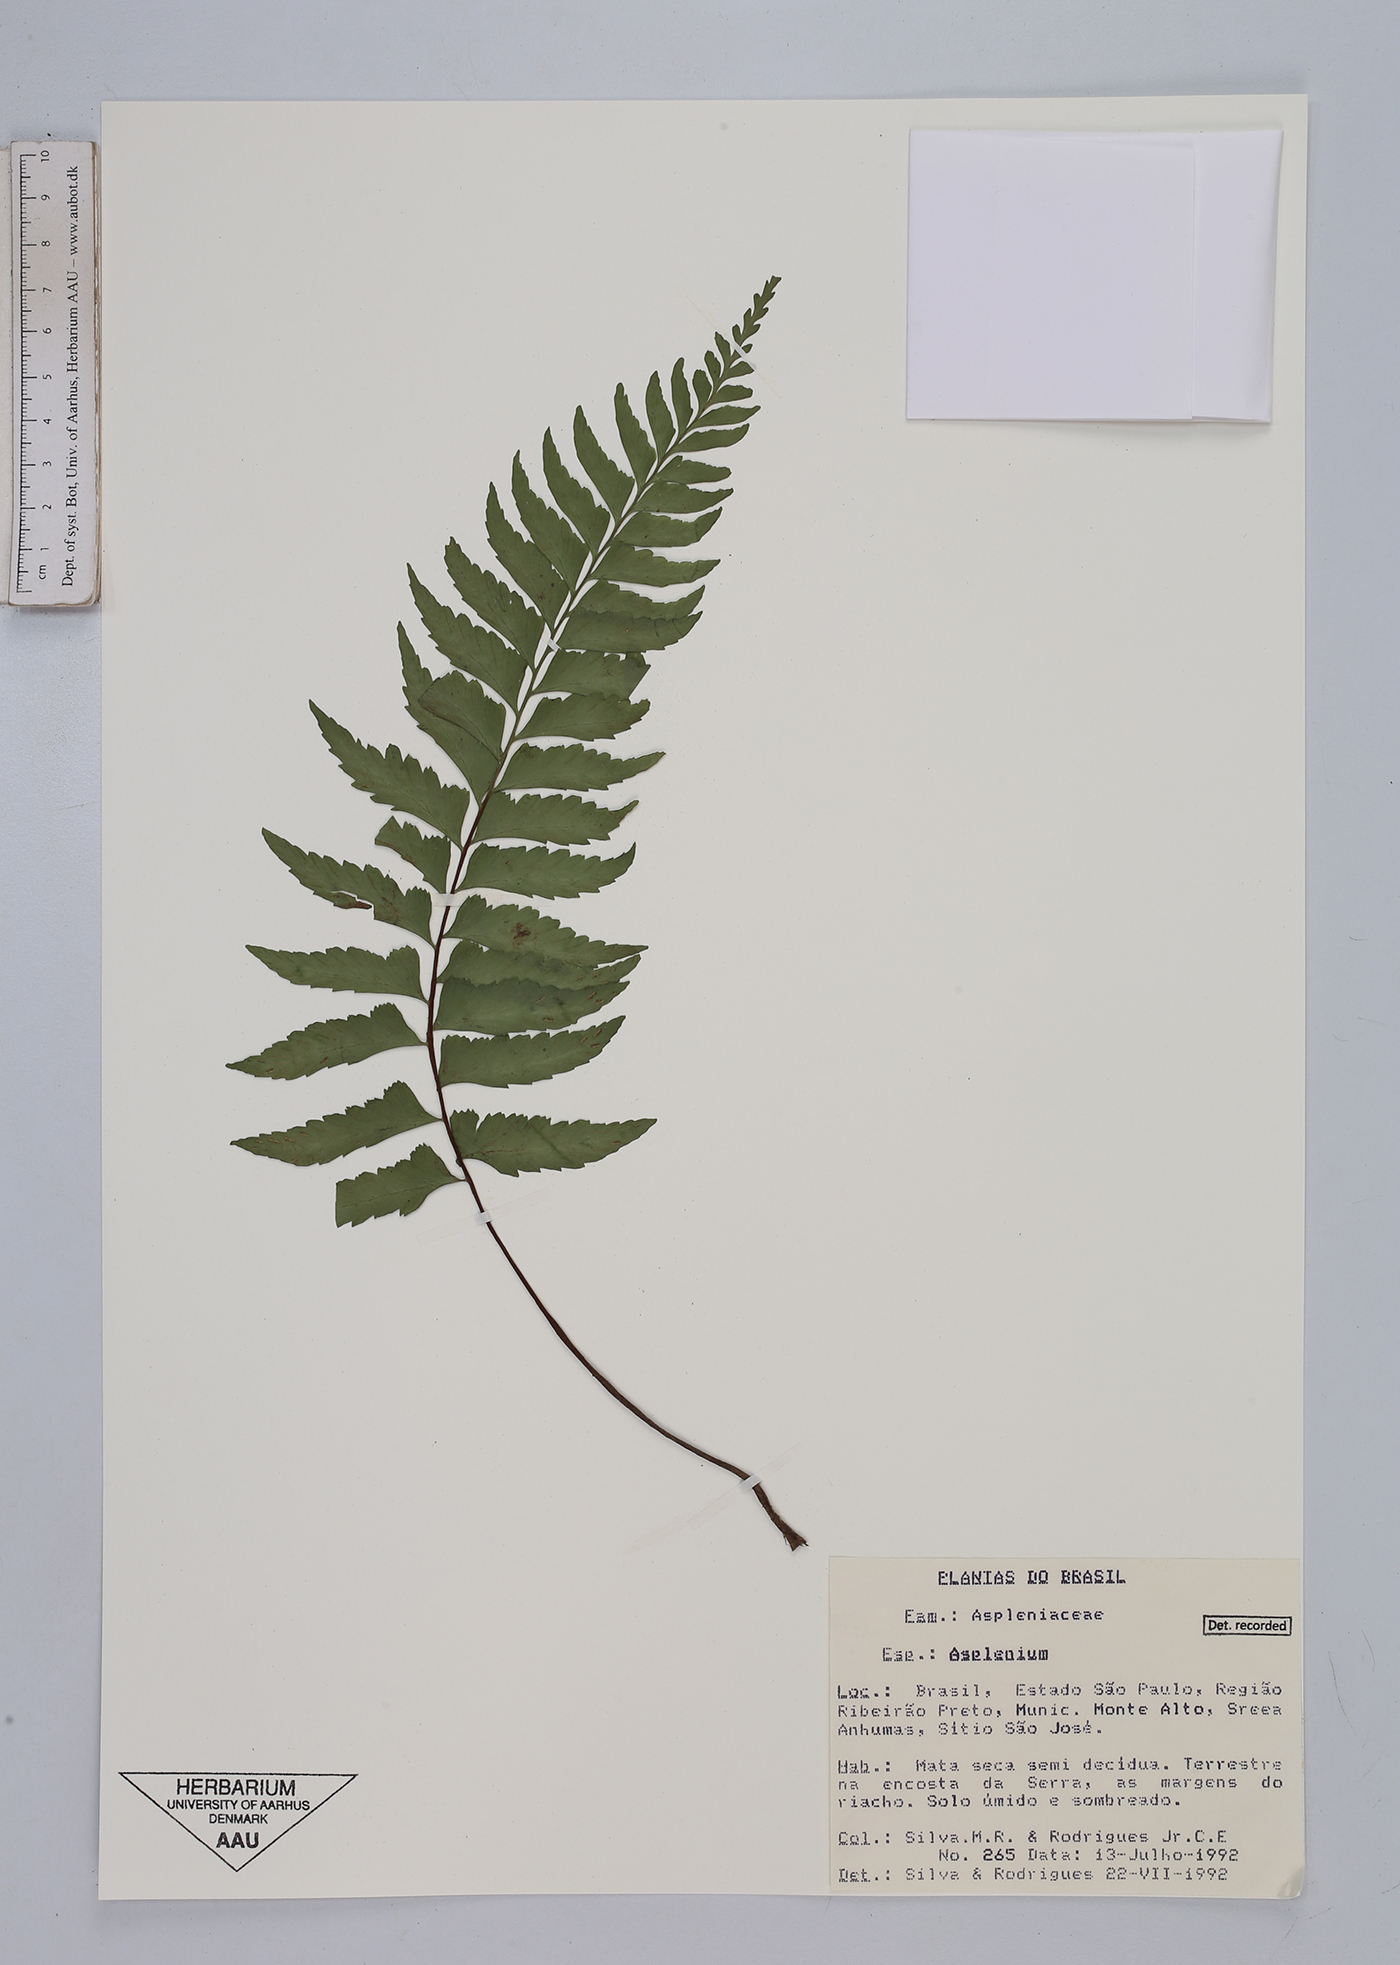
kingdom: Plantae
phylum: Tracheophyta
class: Polypodiopsida
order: Polypodiales
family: Aspleniaceae
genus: Asplenium
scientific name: Asplenium
